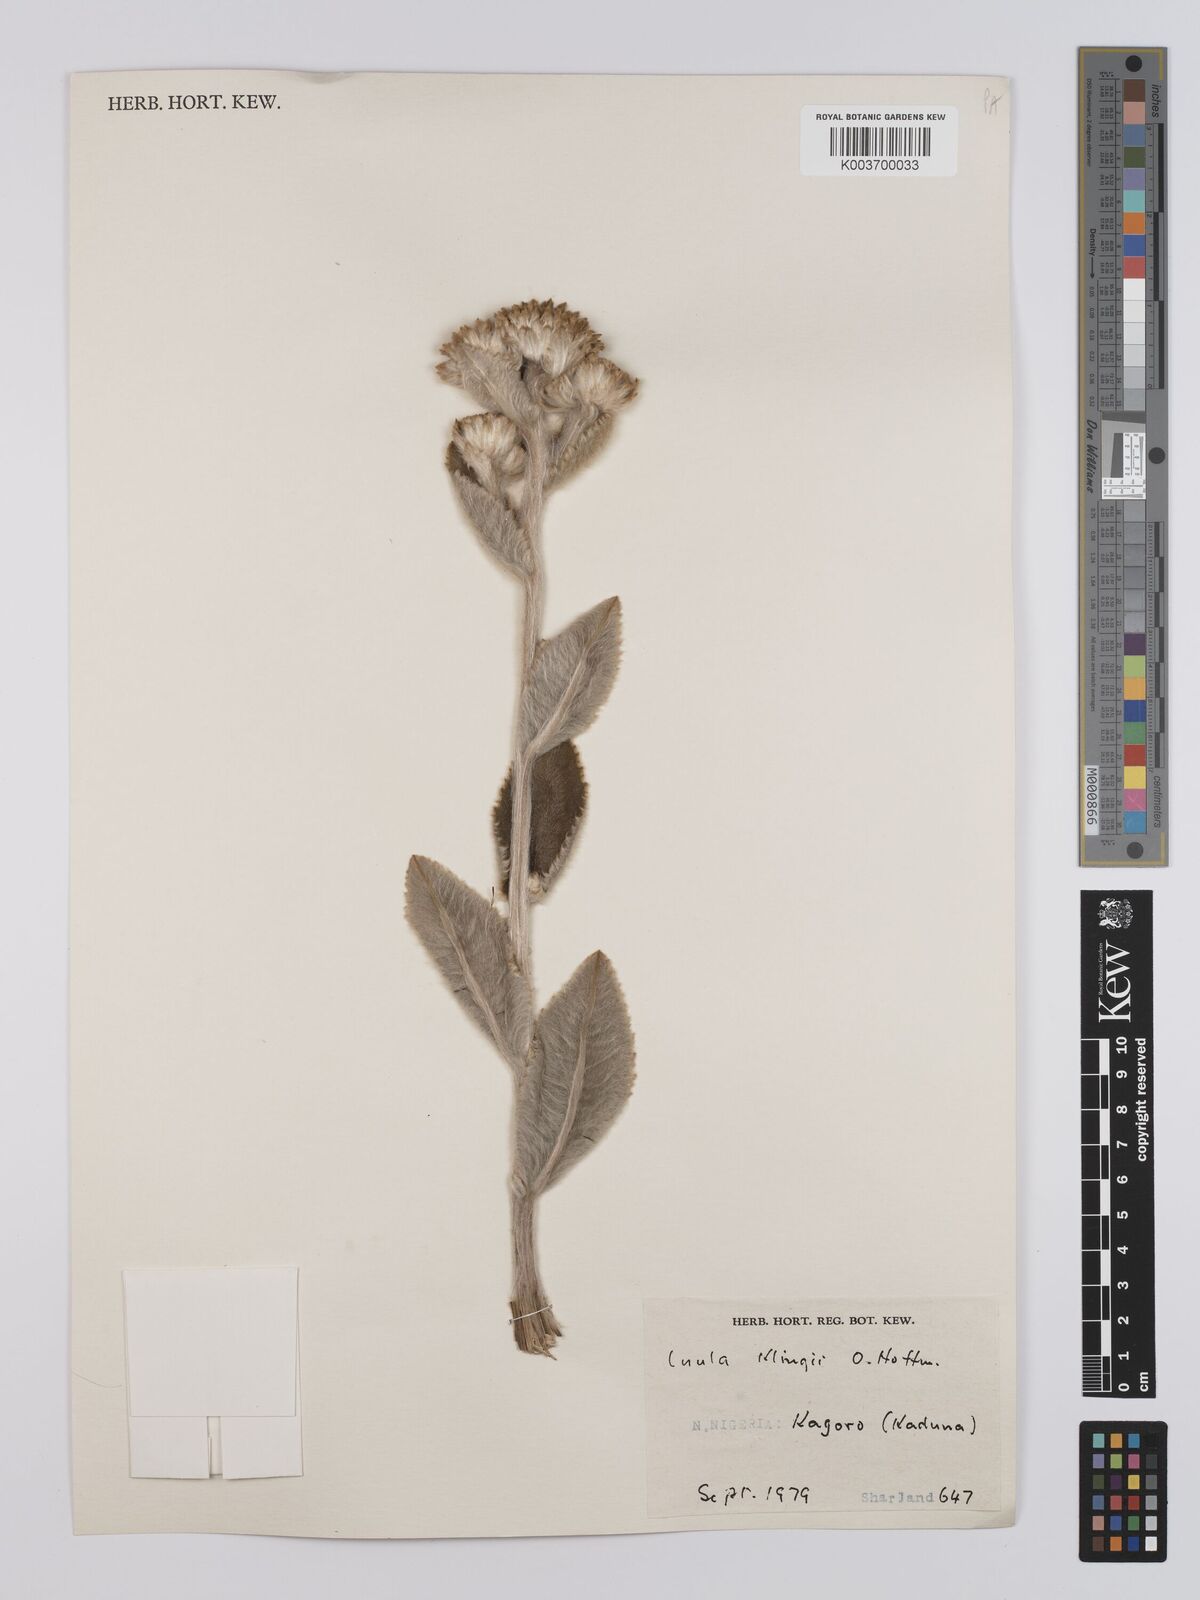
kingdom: Plantae
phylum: Tracheophyta
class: Magnoliopsida
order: Asterales
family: Asteraceae
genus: Inula
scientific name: Inula klingii
